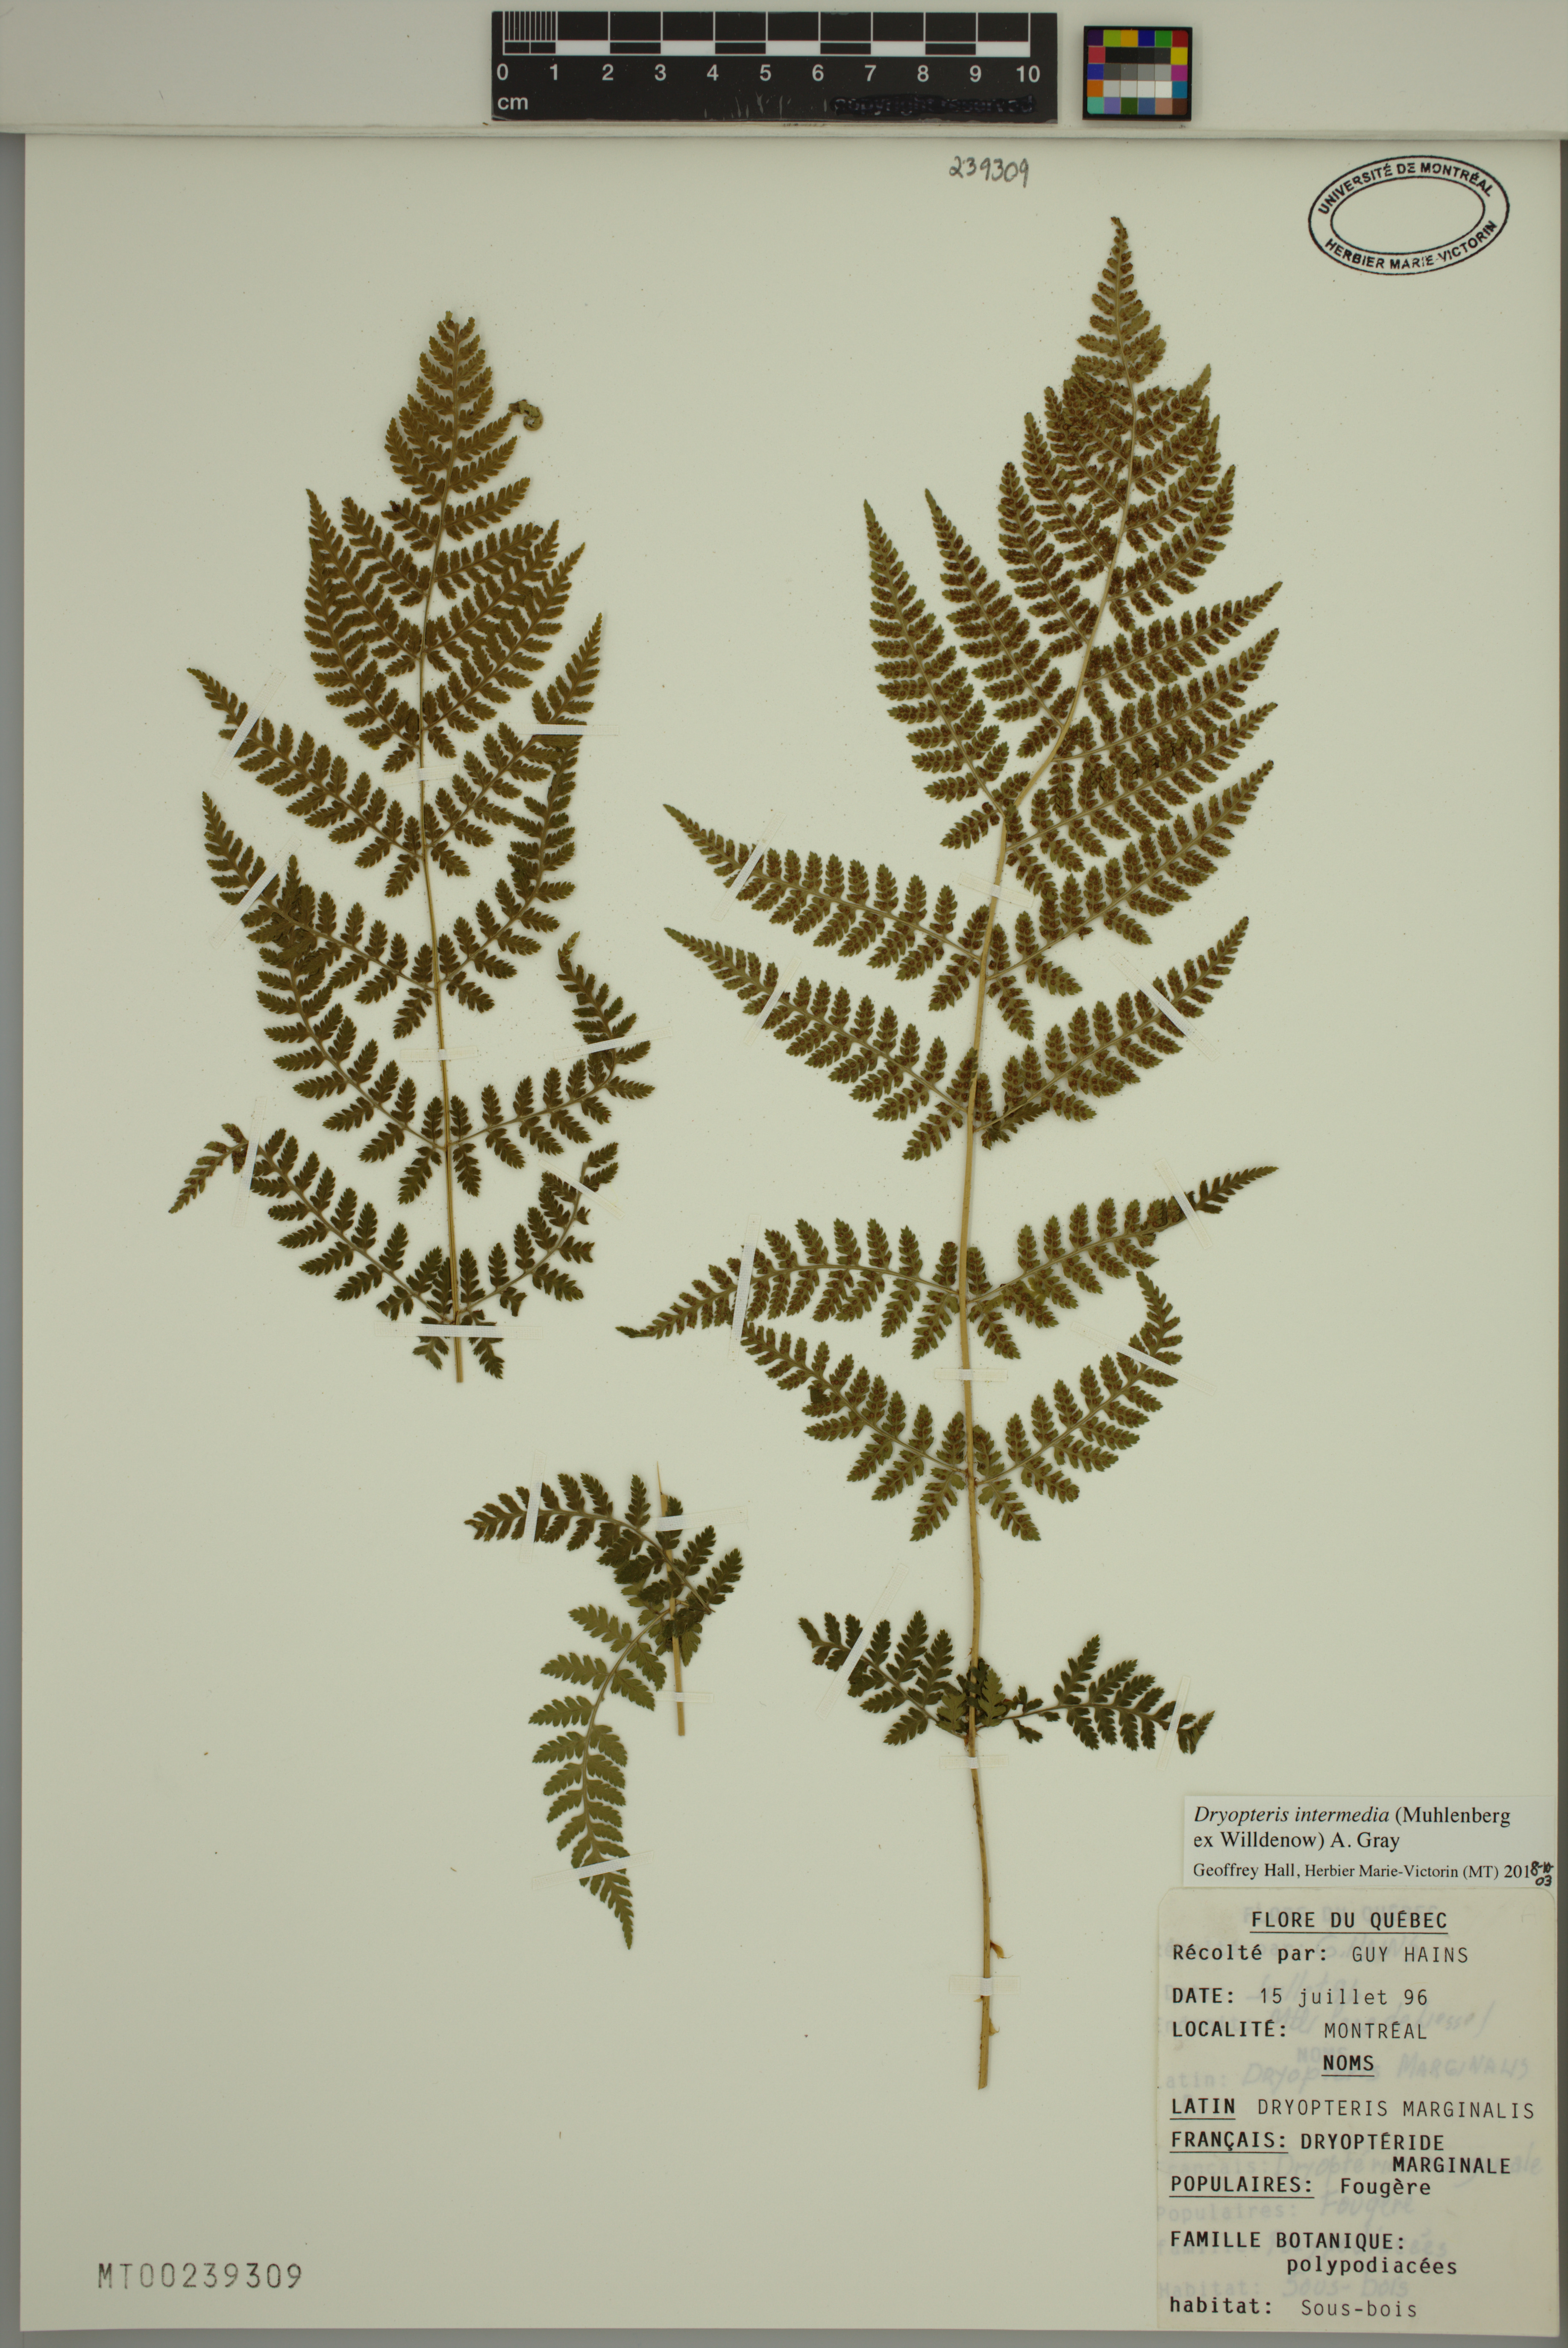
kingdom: Plantae
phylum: Tracheophyta
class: Polypodiopsida
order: Polypodiales
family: Dryopteridaceae
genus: Dryopteris
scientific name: Dryopteris intermedia
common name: Evergreen wood fern
